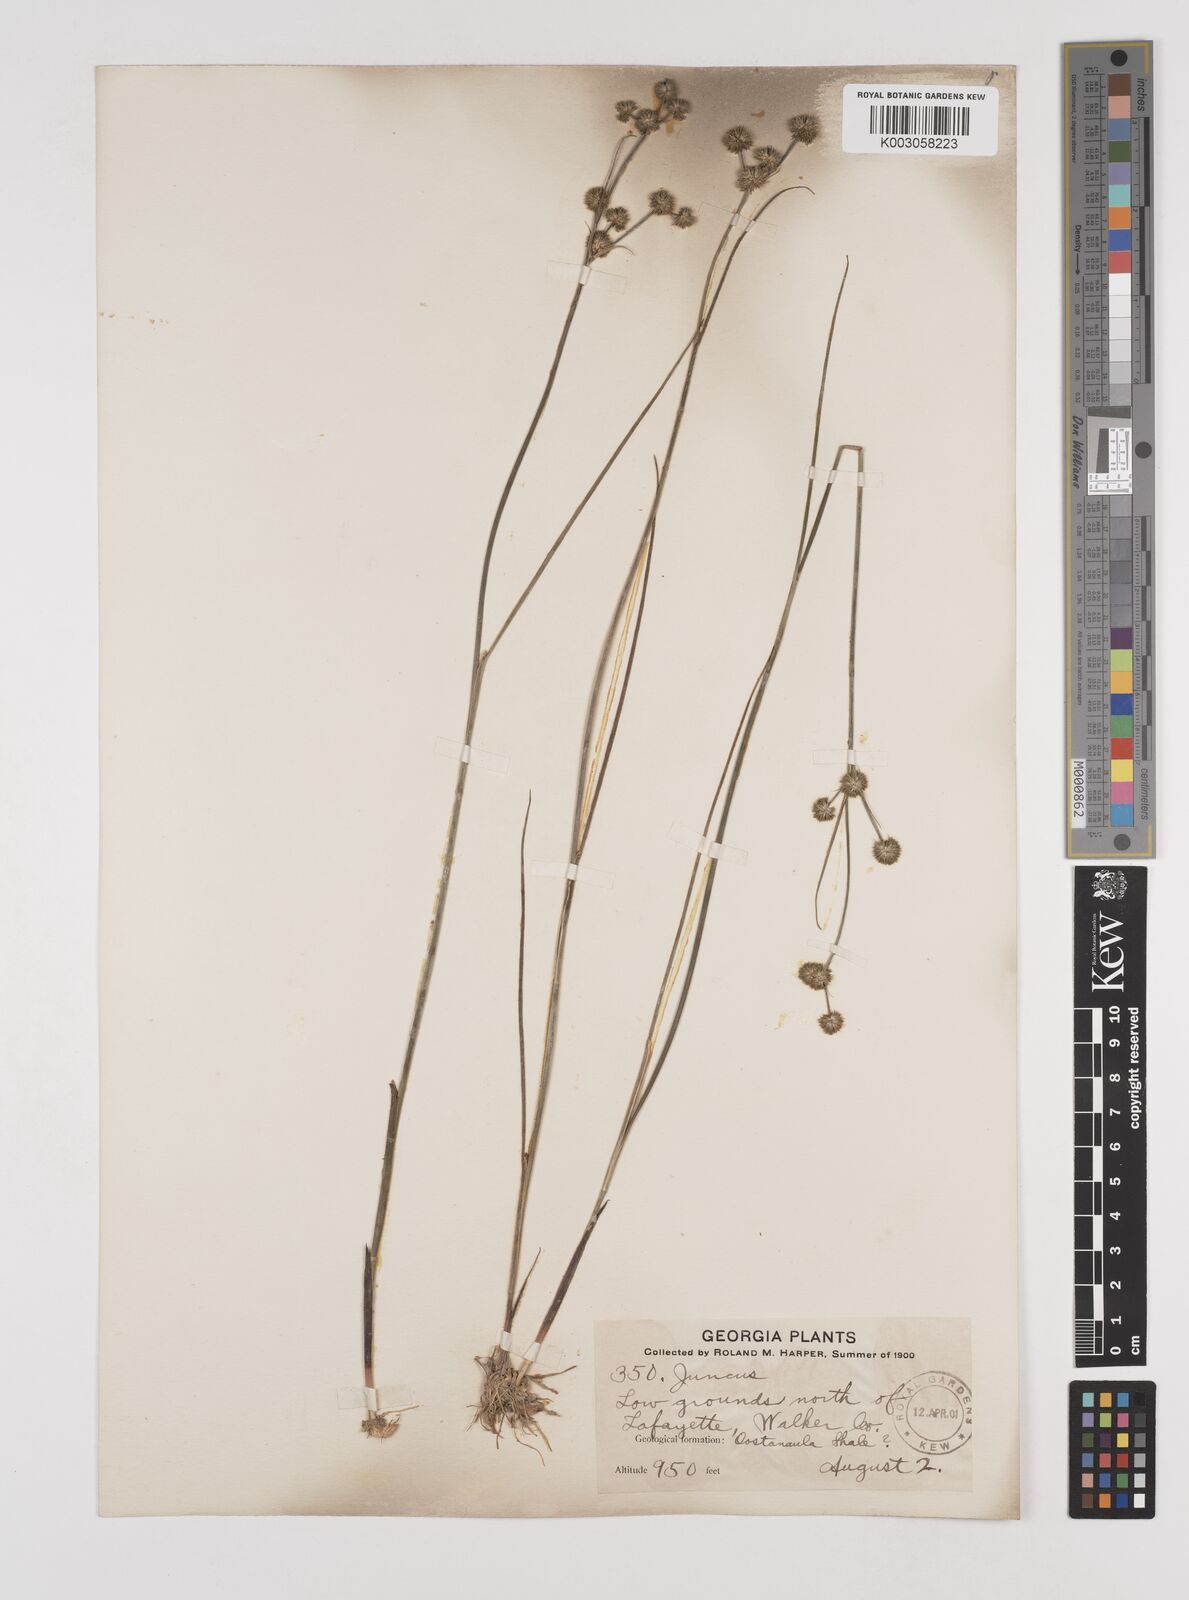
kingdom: Plantae
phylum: Tracheophyta
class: Liliopsida
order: Poales
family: Juncaceae
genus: Juncus
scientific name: Juncus
